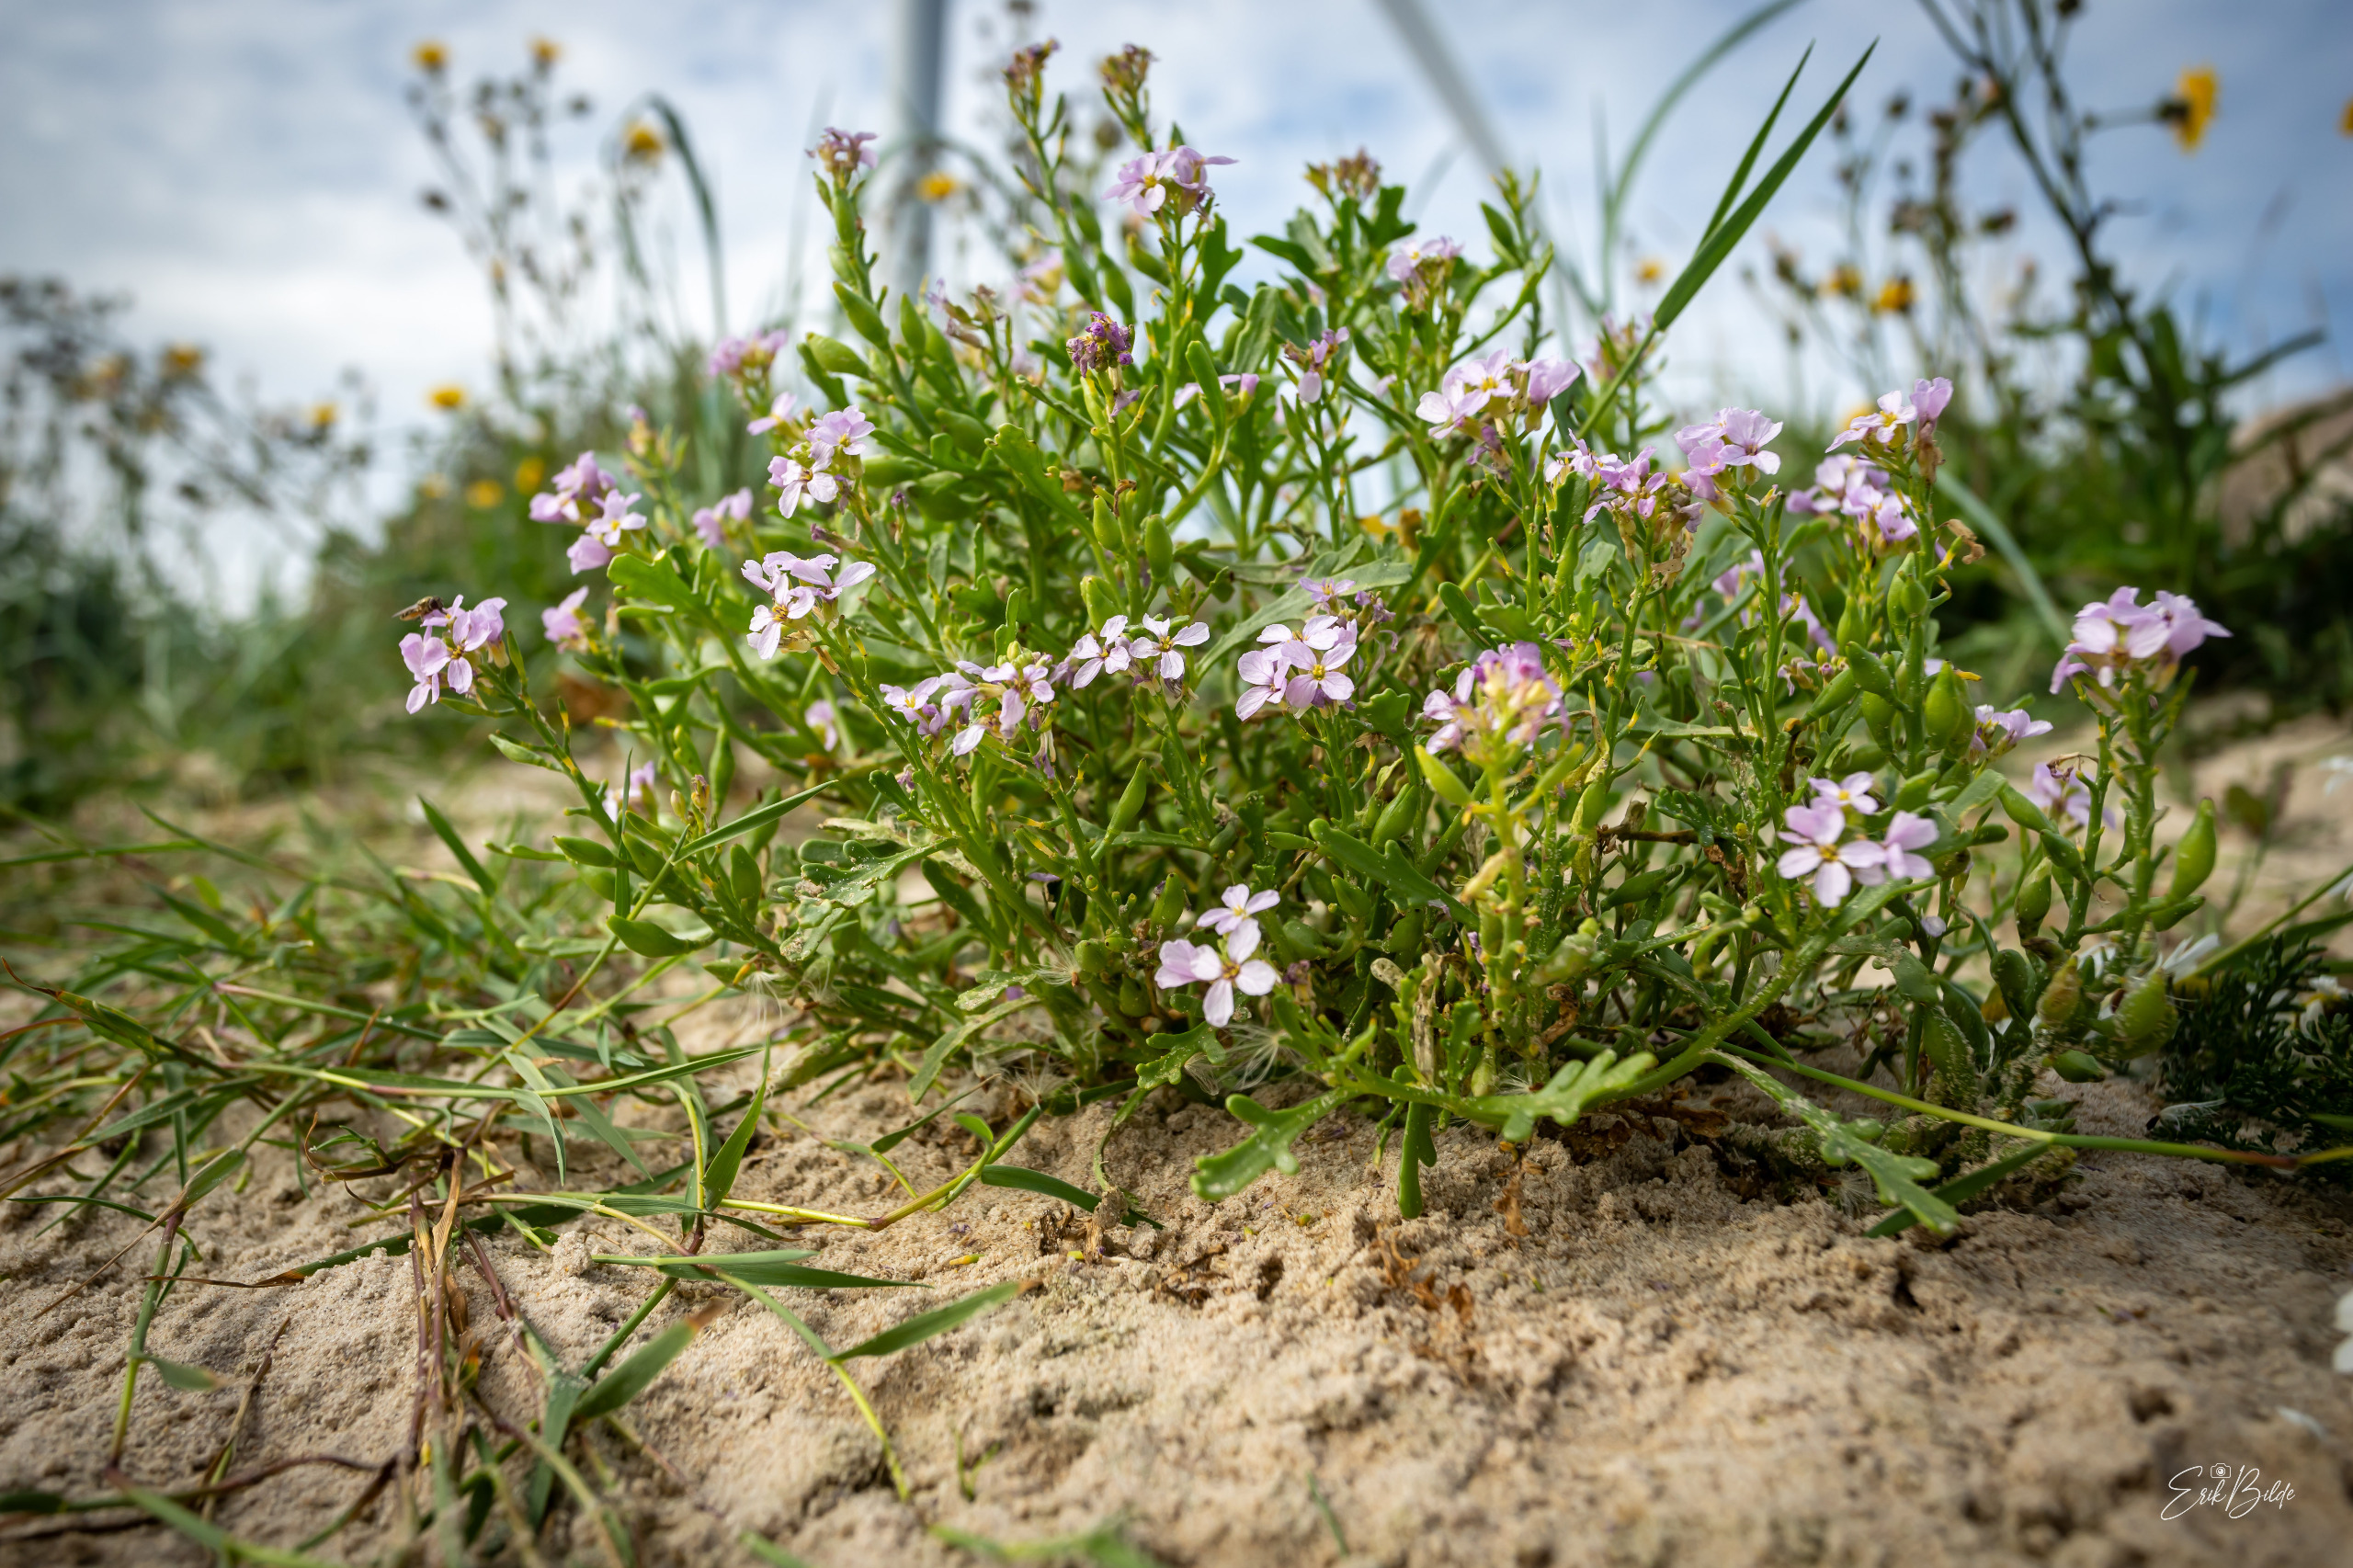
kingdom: Plantae
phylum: Tracheophyta
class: Magnoliopsida
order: Brassicales
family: Brassicaceae
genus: Cakile
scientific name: Cakile maritima
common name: Strandsennep
